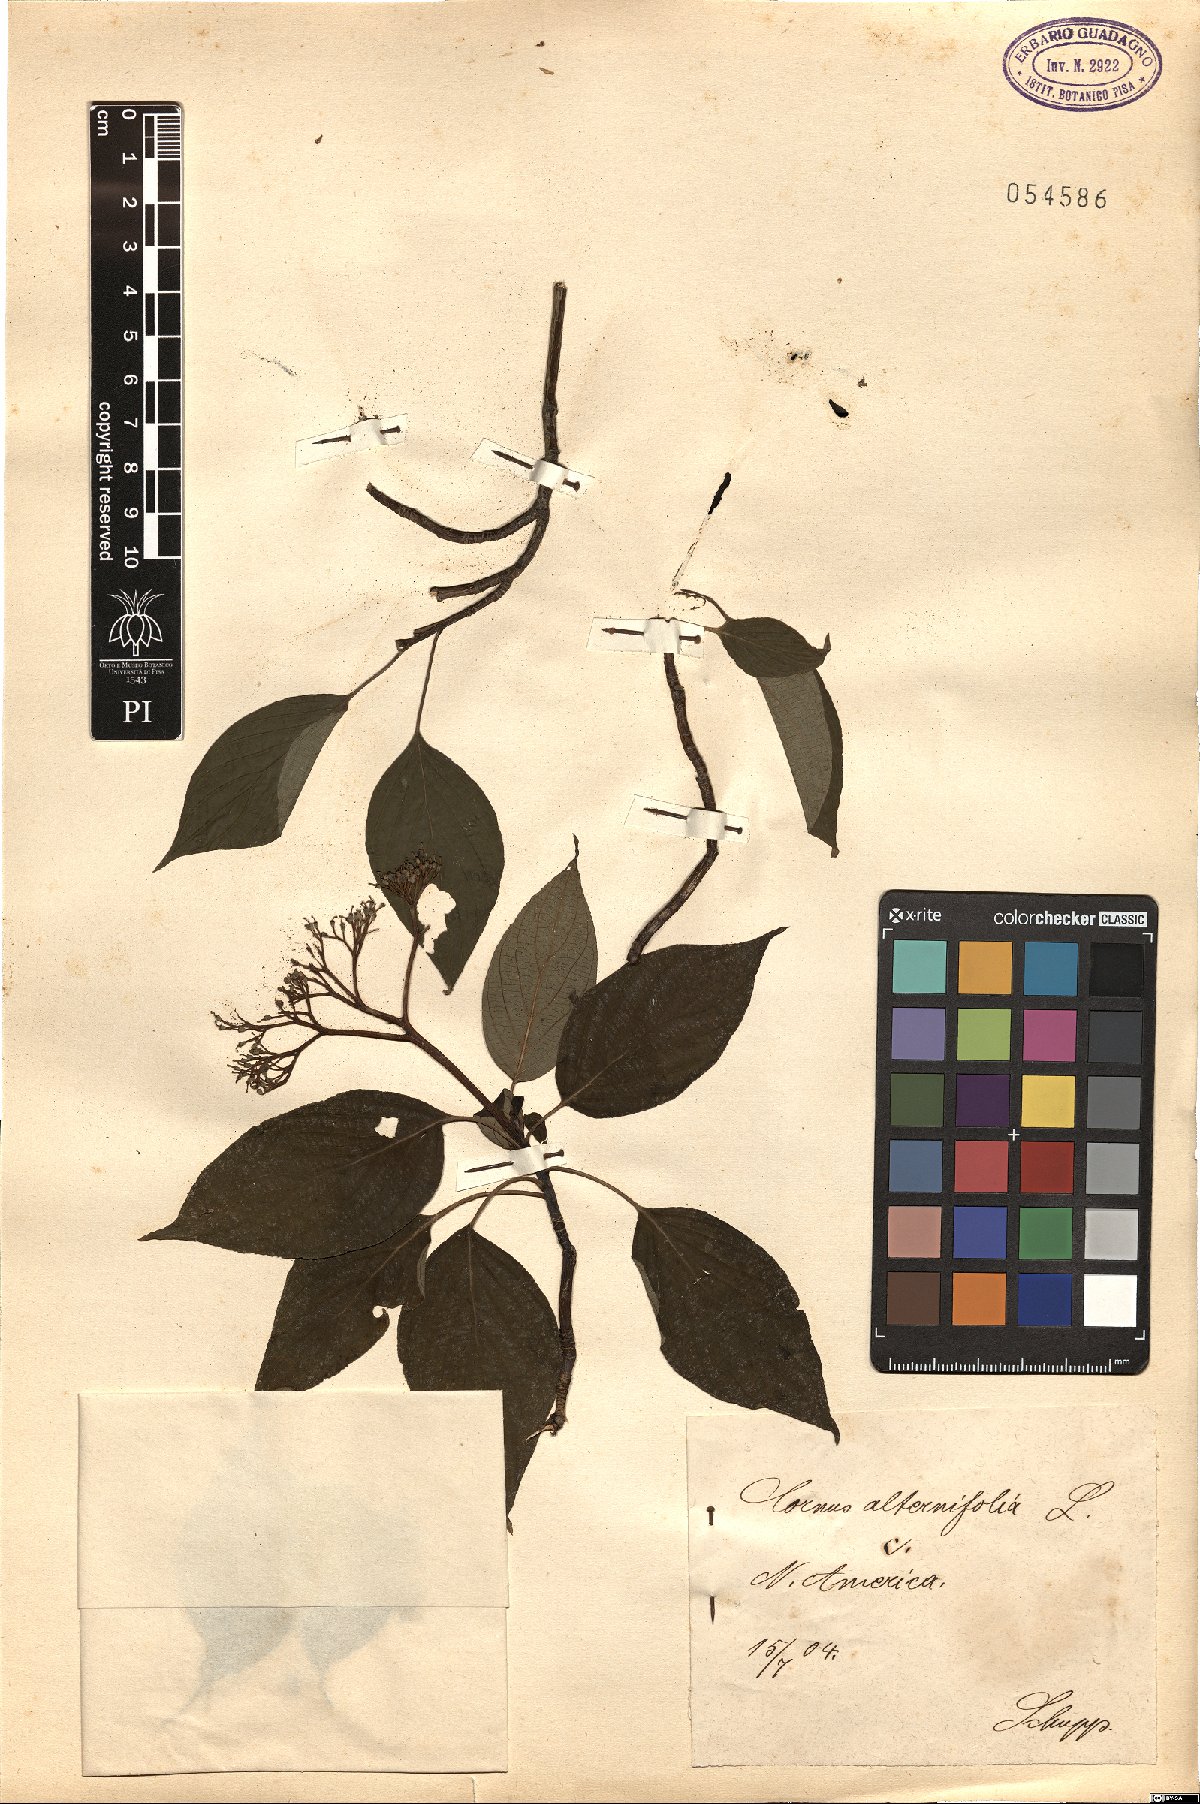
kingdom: Plantae
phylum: Tracheophyta
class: Magnoliopsida
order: Cornales
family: Cornaceae
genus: Cornus
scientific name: Cornus alternifolia
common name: Pagoda dogwood
